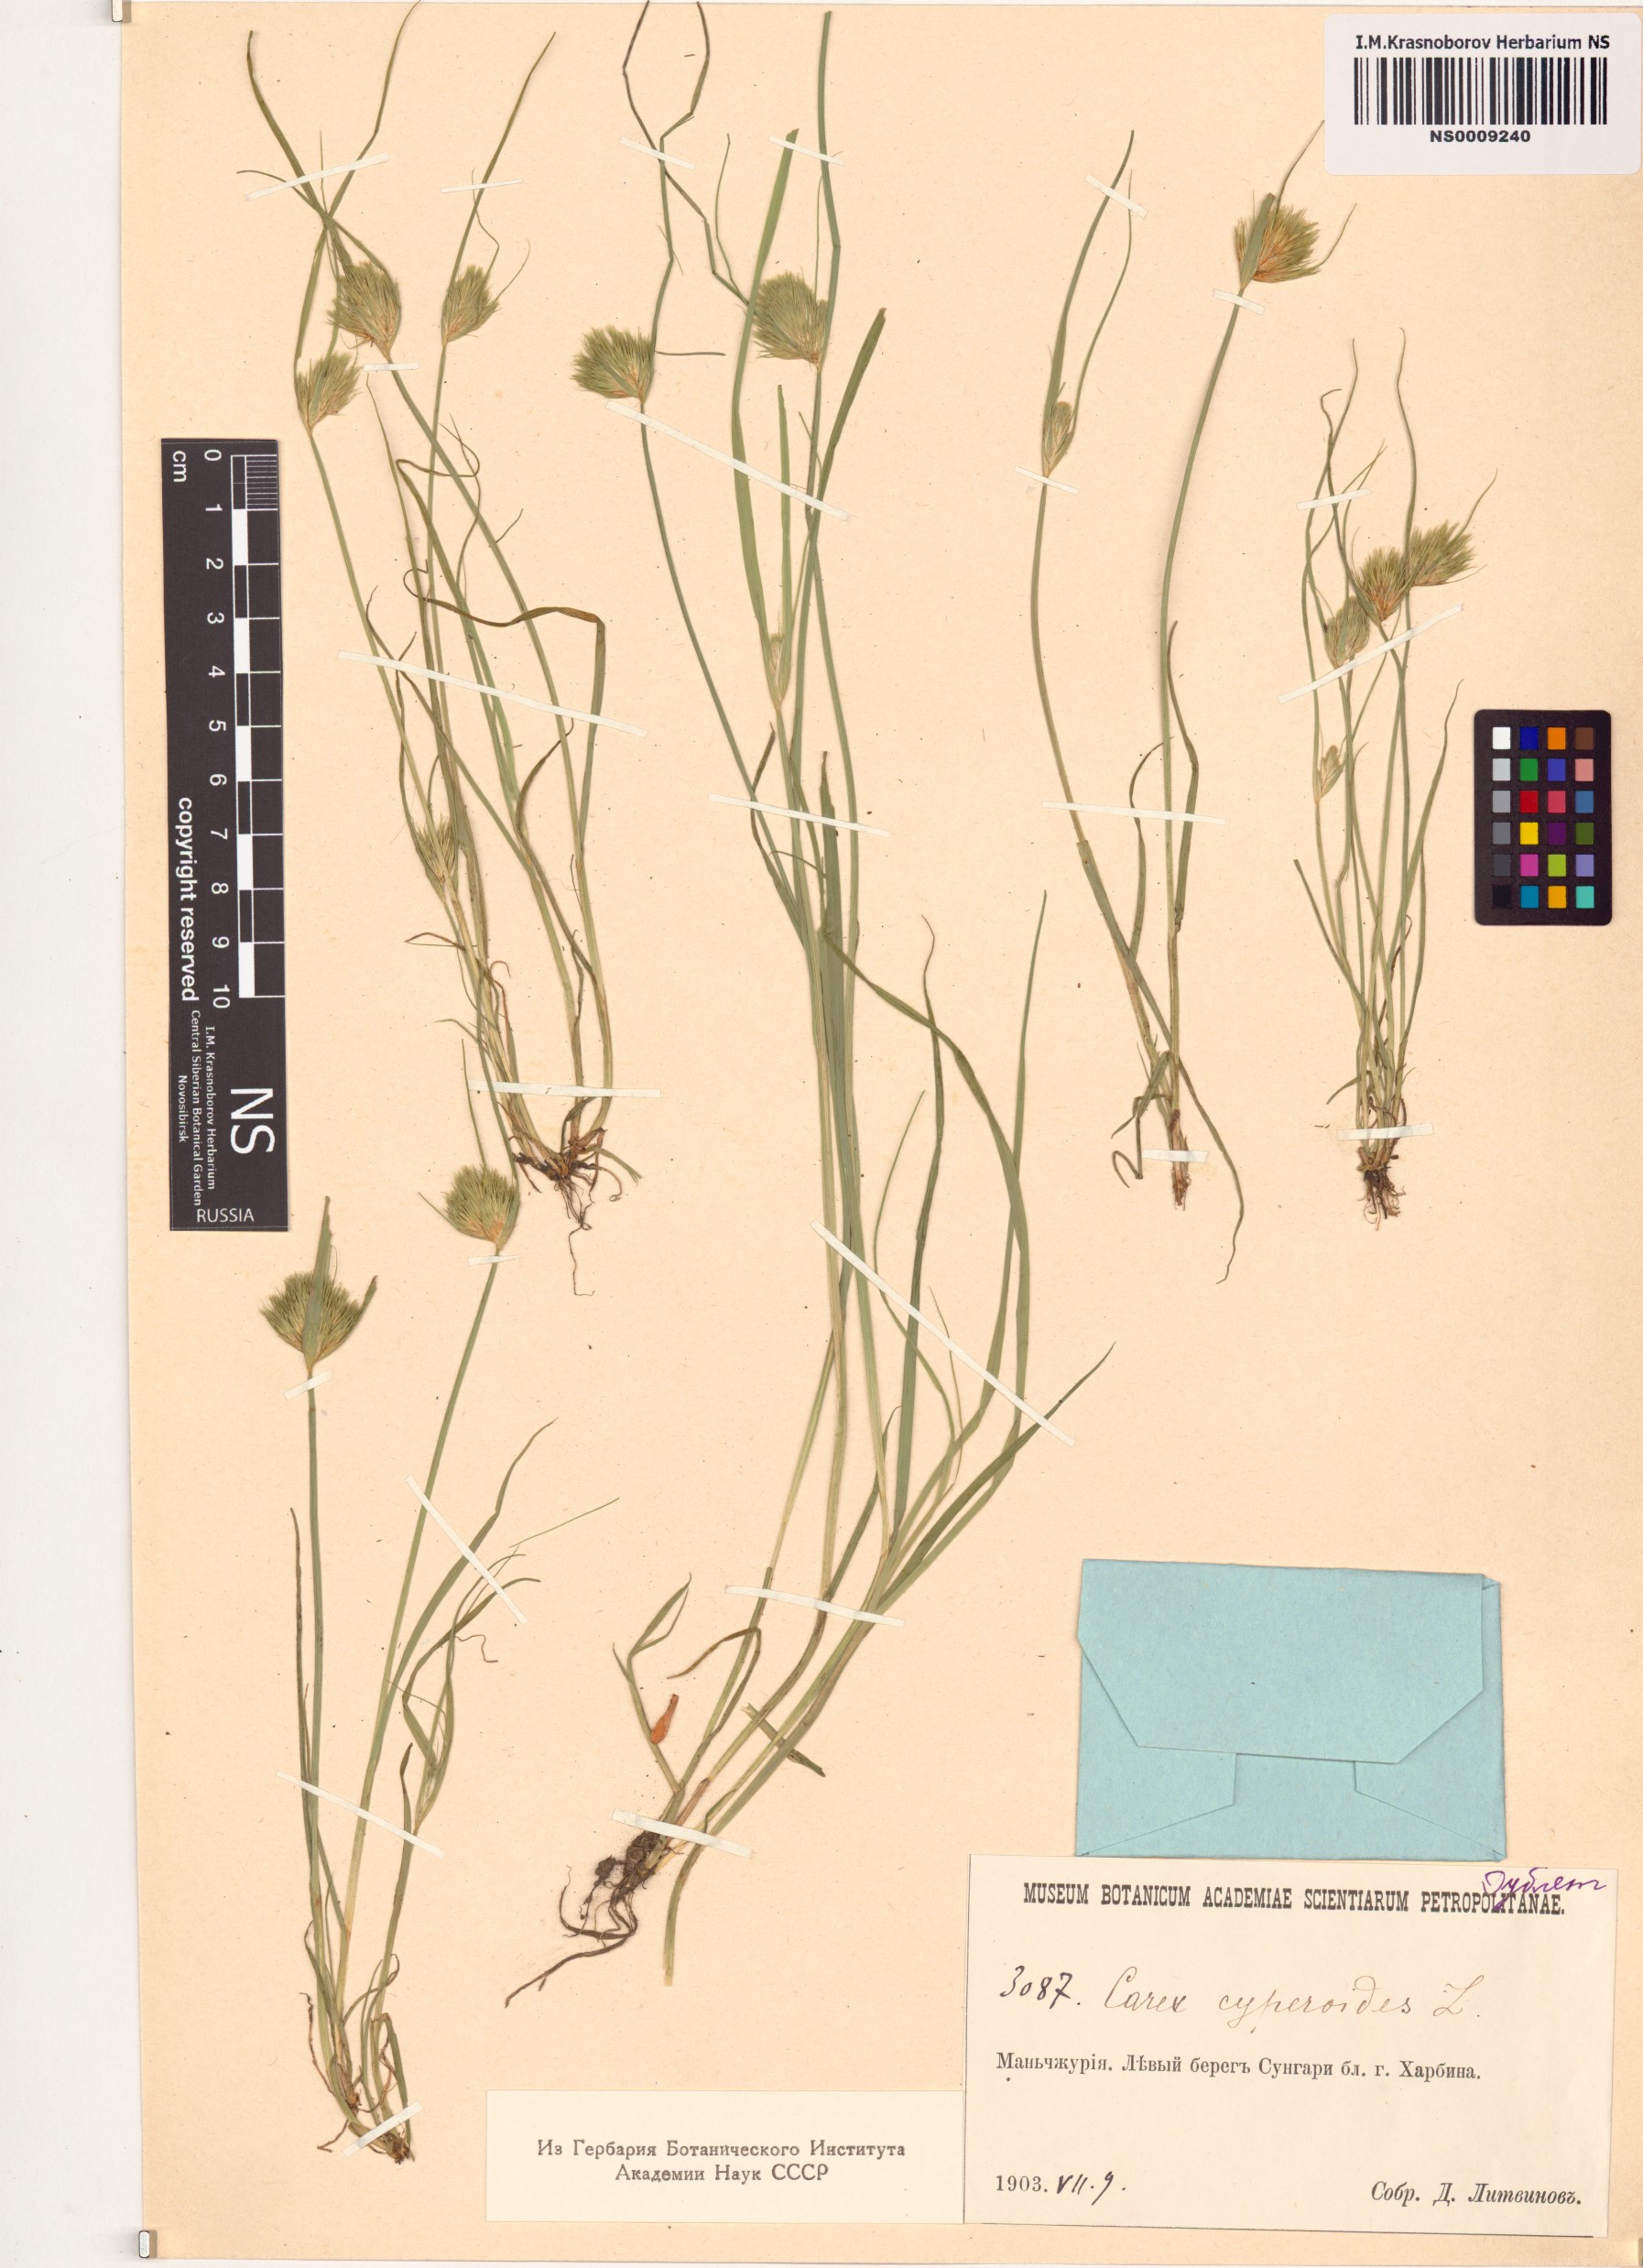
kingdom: Plantae
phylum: Tracheophyta
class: Liliopsida
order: Poales
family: Cyperaceae
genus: Carex
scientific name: Carex bohemica
